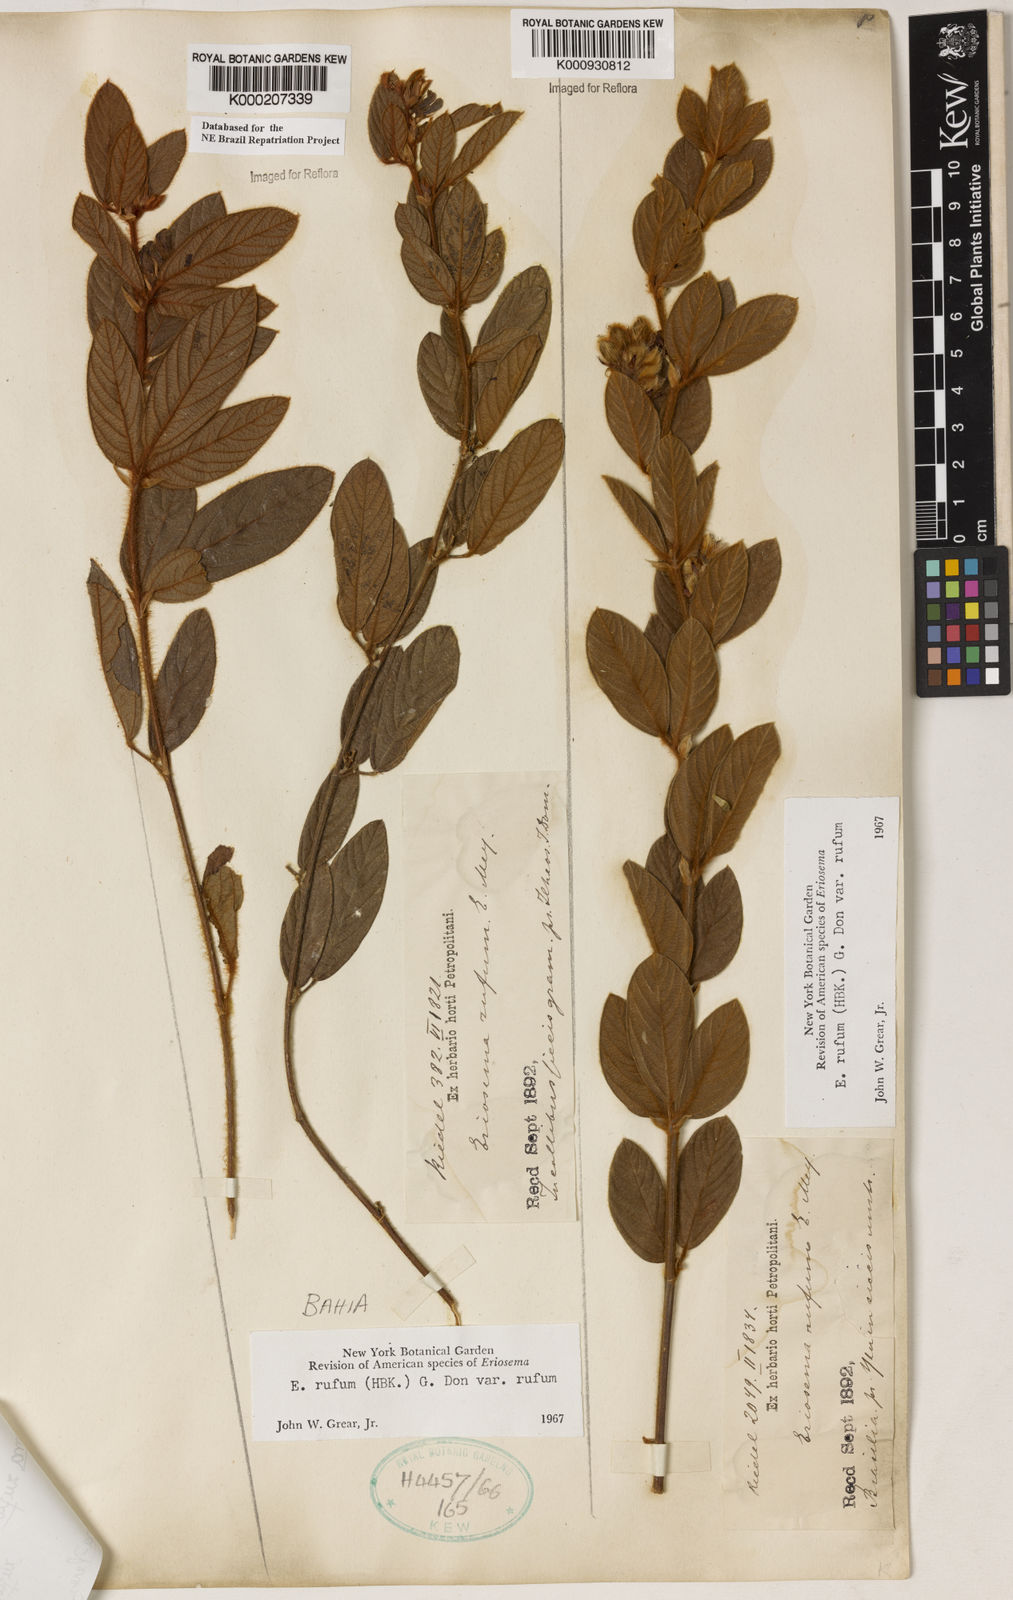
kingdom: Plantae
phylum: Tracheophyta
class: Magnoliopsida
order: Fabales
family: Fabaceae
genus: Eriosema
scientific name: Eriosema rufum
